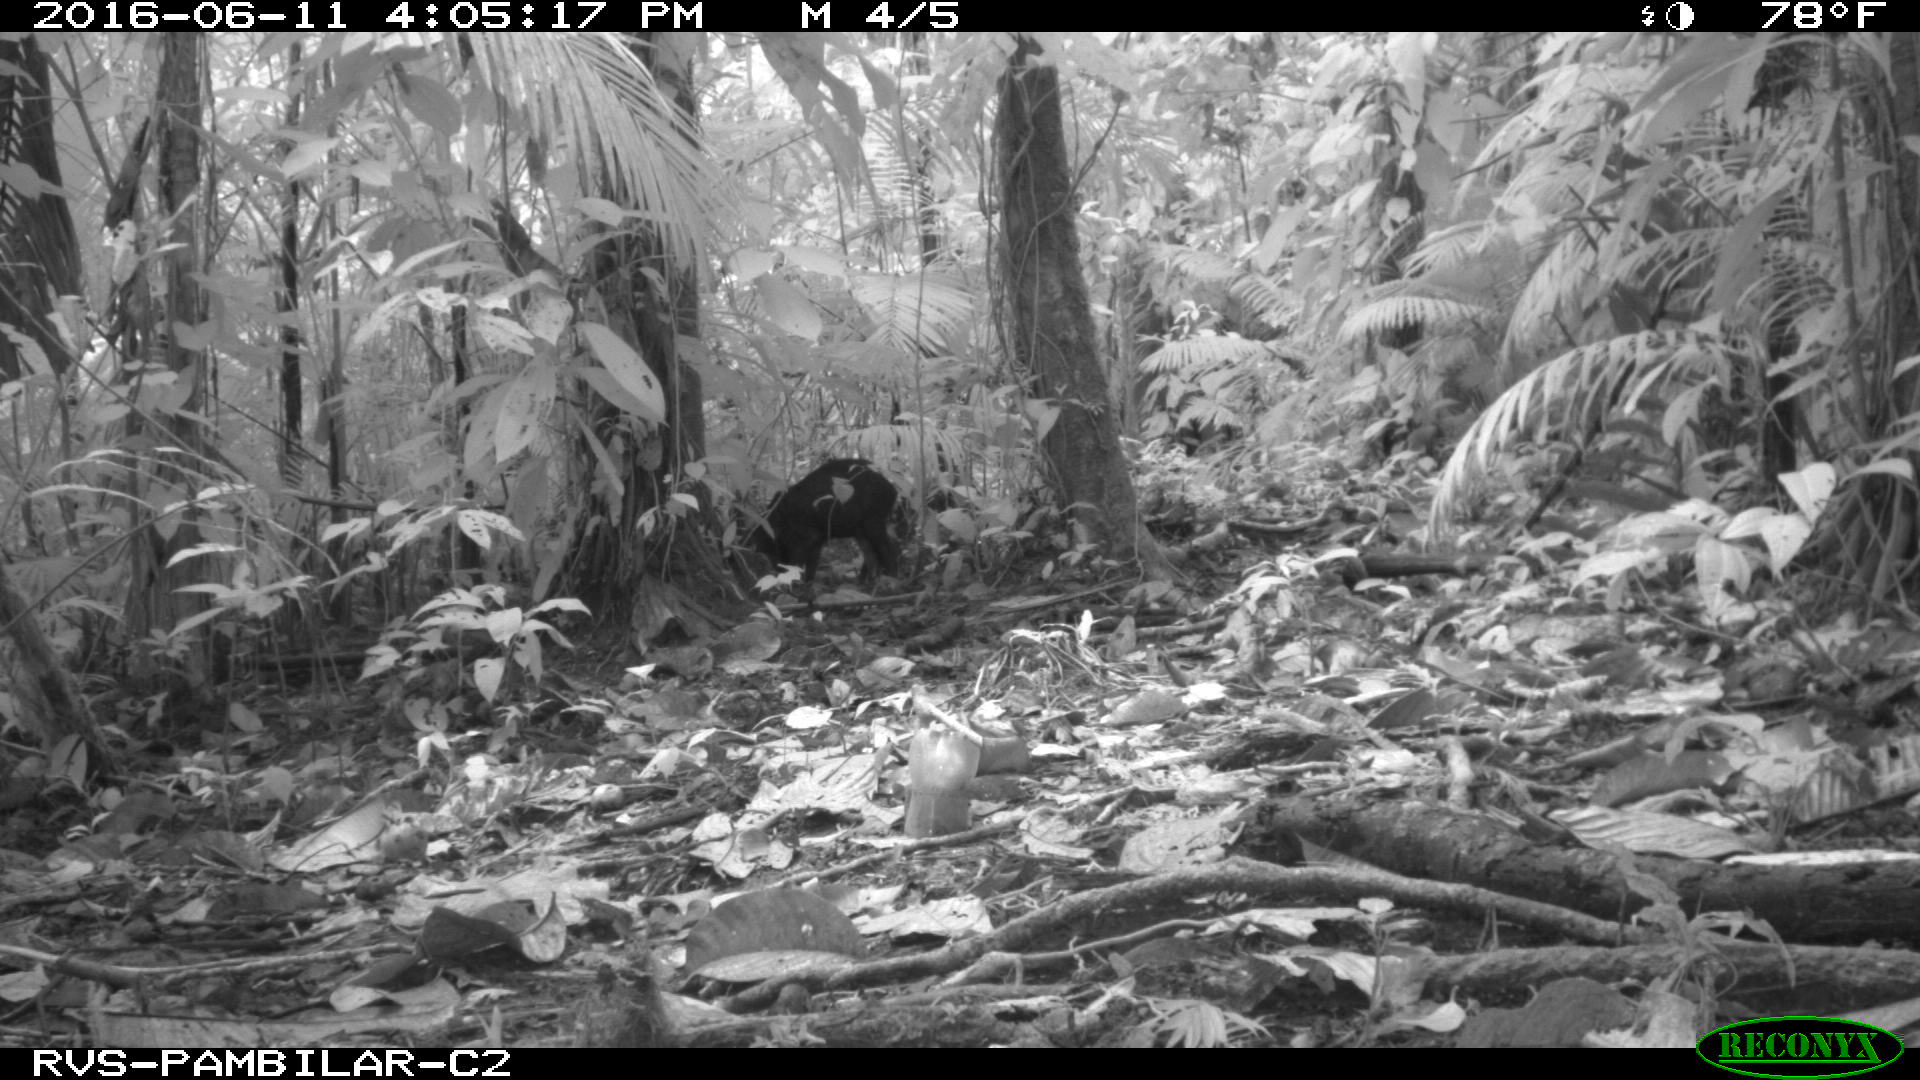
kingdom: Animalia
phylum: Chordata
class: Mammalia
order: Artiodactyla
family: Tayassuidae
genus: Pecari
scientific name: Pecari tajacu
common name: Collared peccary
